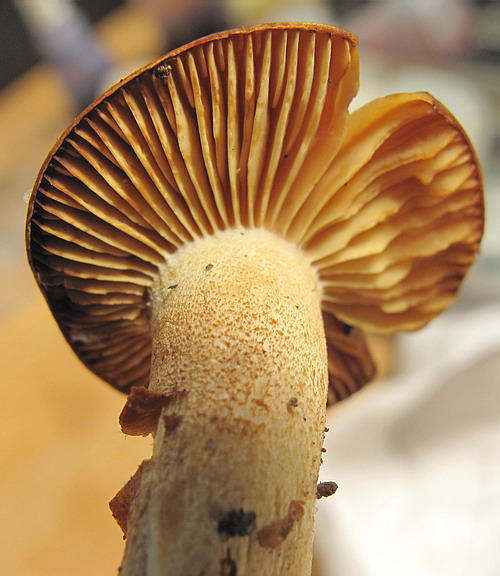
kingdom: Fungi
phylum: Basidiomycota
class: Agaricomycetes
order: Agaricales
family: Hygrophoraceae
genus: Hygrophorus
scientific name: Hygrophorus discoxanthus
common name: ildelugtende sneglehat
